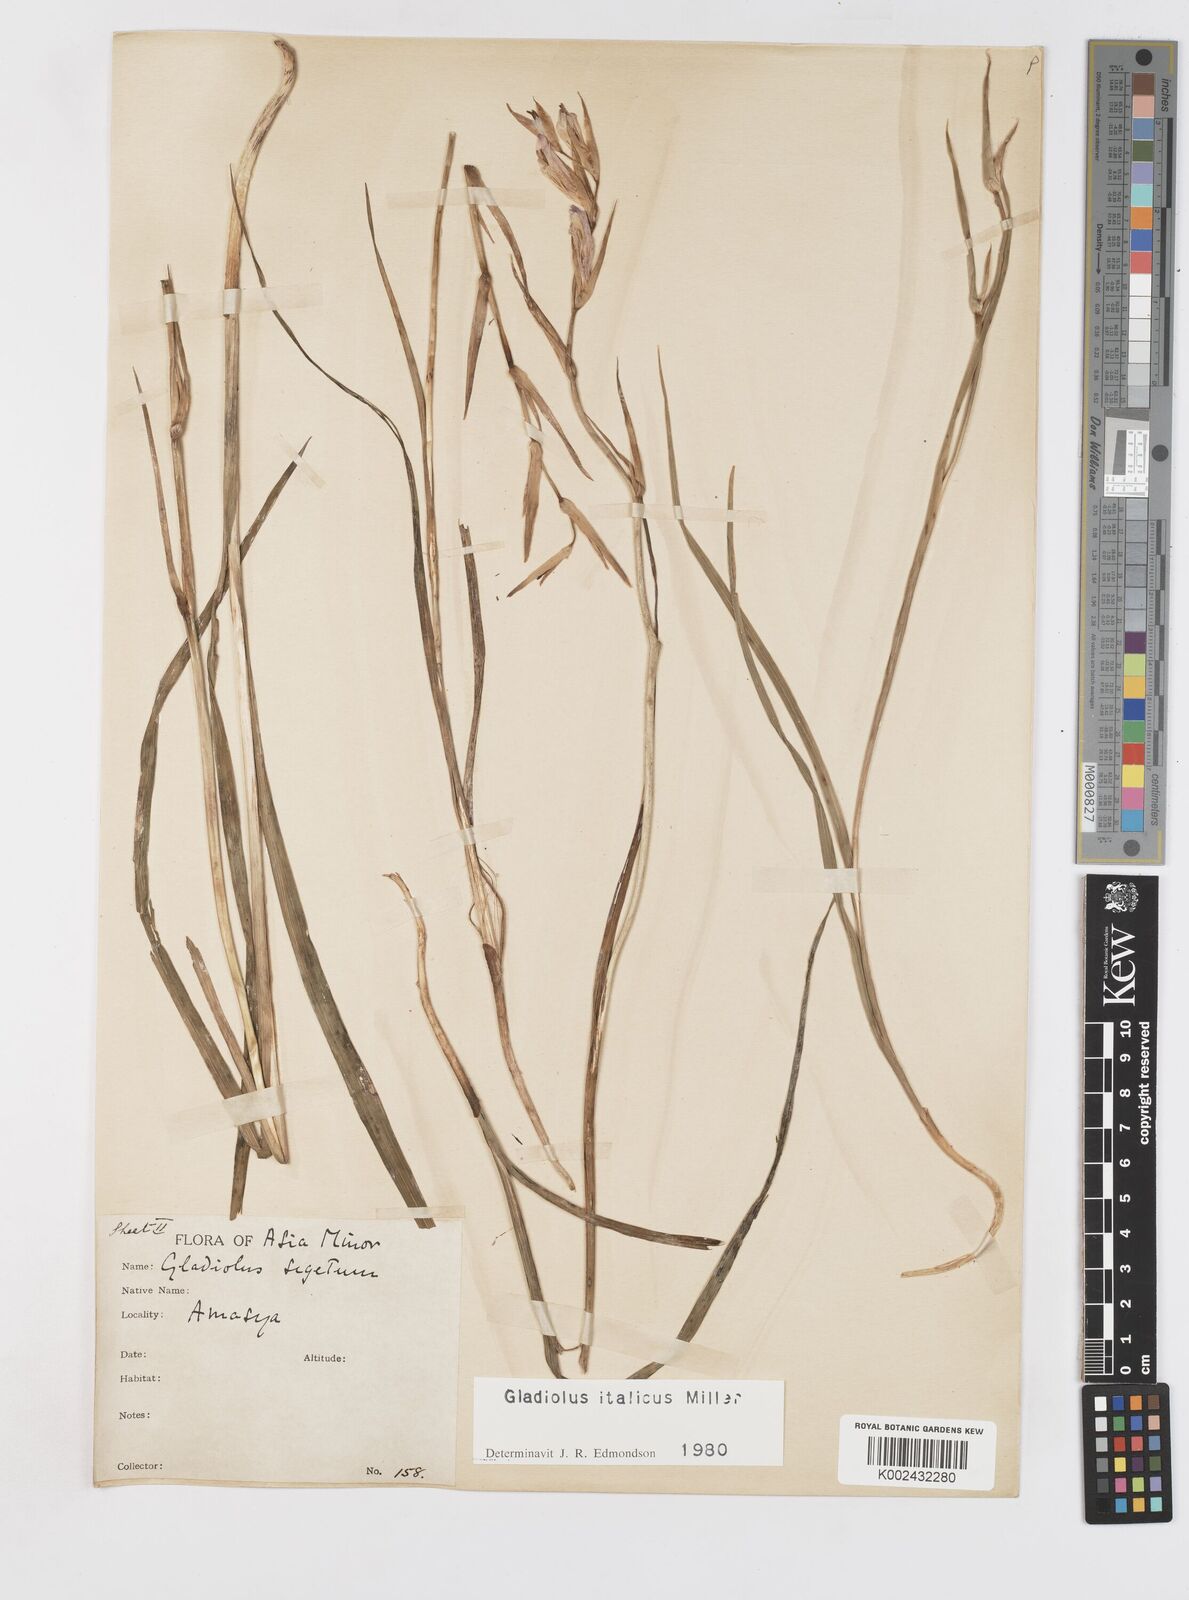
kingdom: Plantae
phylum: Tracheophyta
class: Liliopsida
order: Asparagales
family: Iridaceae
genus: Gladiolus
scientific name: Gladiolus italicus
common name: Field gladiolus
